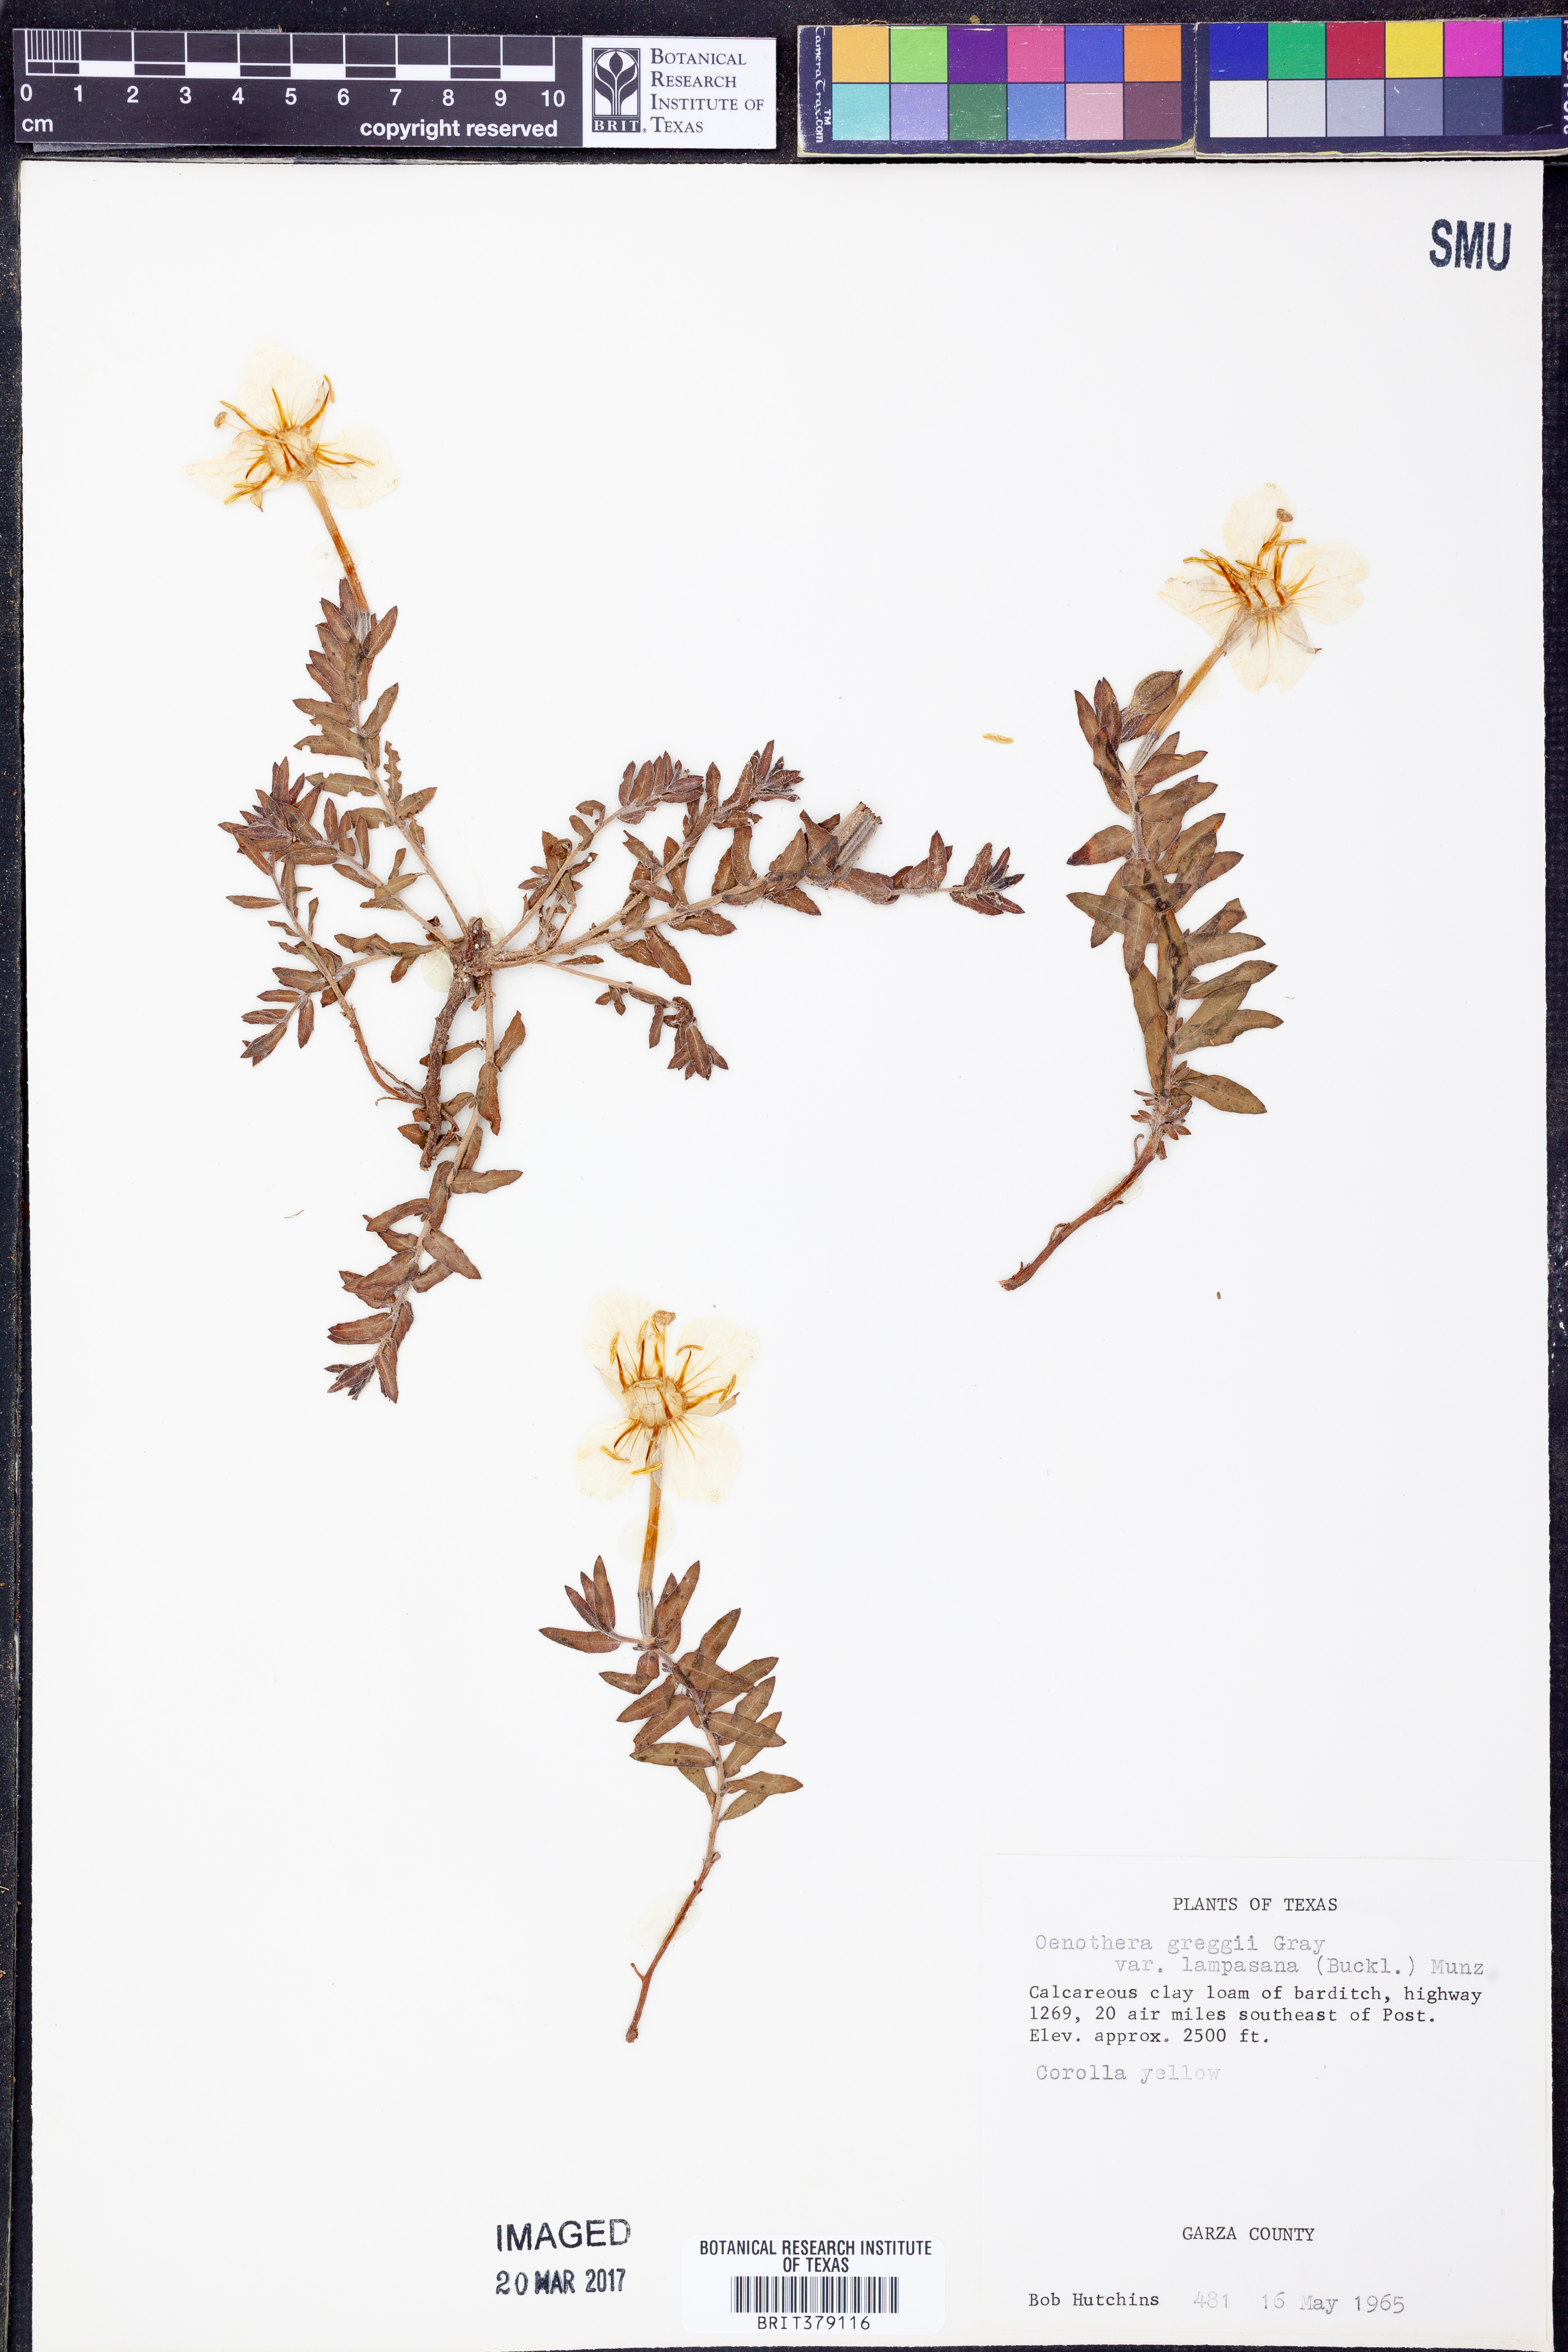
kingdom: Plantae
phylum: Tracheophyta
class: Magnoliopsida
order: Myrtales
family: Onagraceae
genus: Oenothera
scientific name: Oenothera hartwegii
